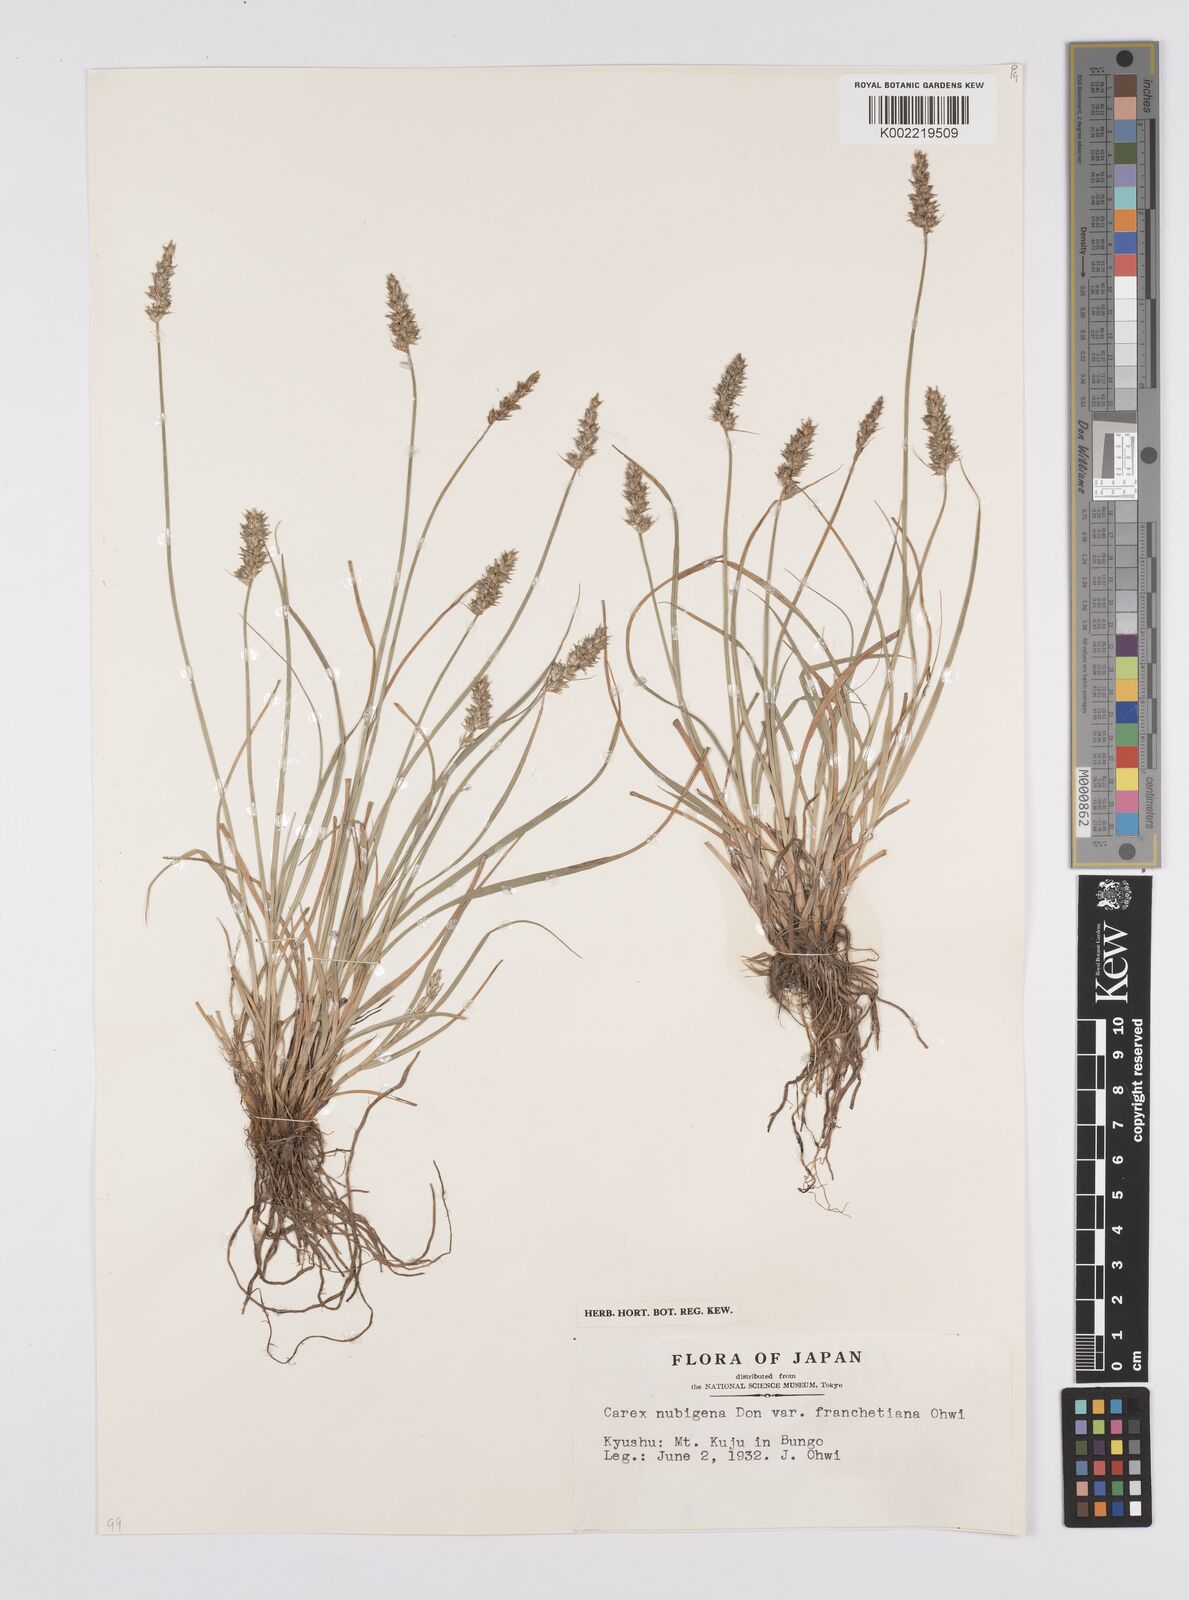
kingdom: Plantae
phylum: Tracheophyta
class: Liliopsida
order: Poales
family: Cyperaceae
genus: Carex
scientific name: Carex nubigena
